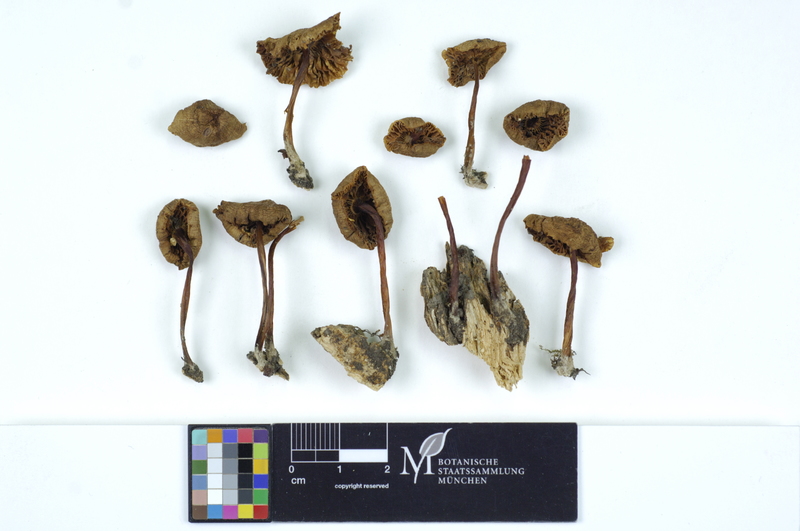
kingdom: Fungi
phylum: Basidiomycota
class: Agaricomycetes
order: Agaricales
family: Mycenaceae
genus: Mycena
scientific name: Mycena galericulata
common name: Bonnet mycena
